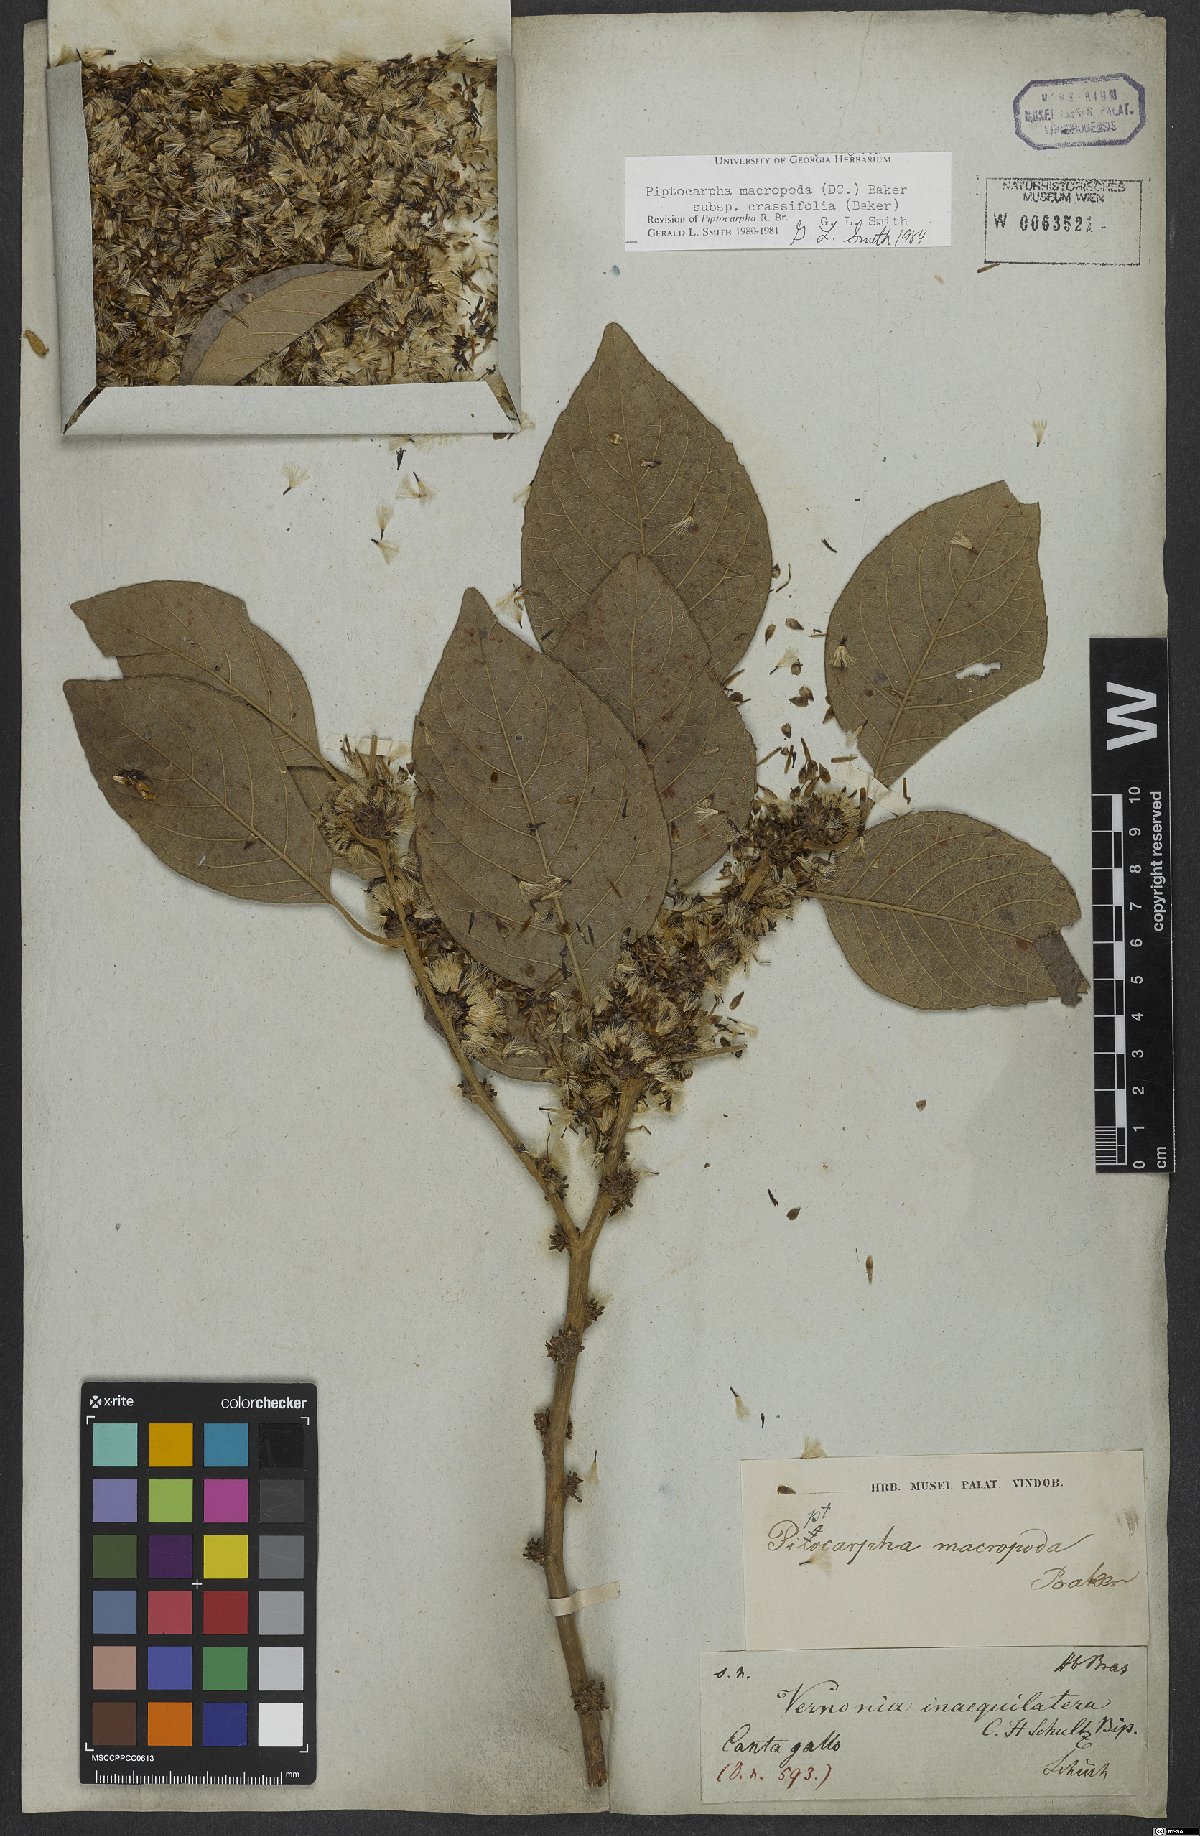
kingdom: Plantae
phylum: Tracheophyta
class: Magnoliopsida
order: Asterales
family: Asteraceae
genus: Piptocarpha
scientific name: Piptocarpha macropoda
